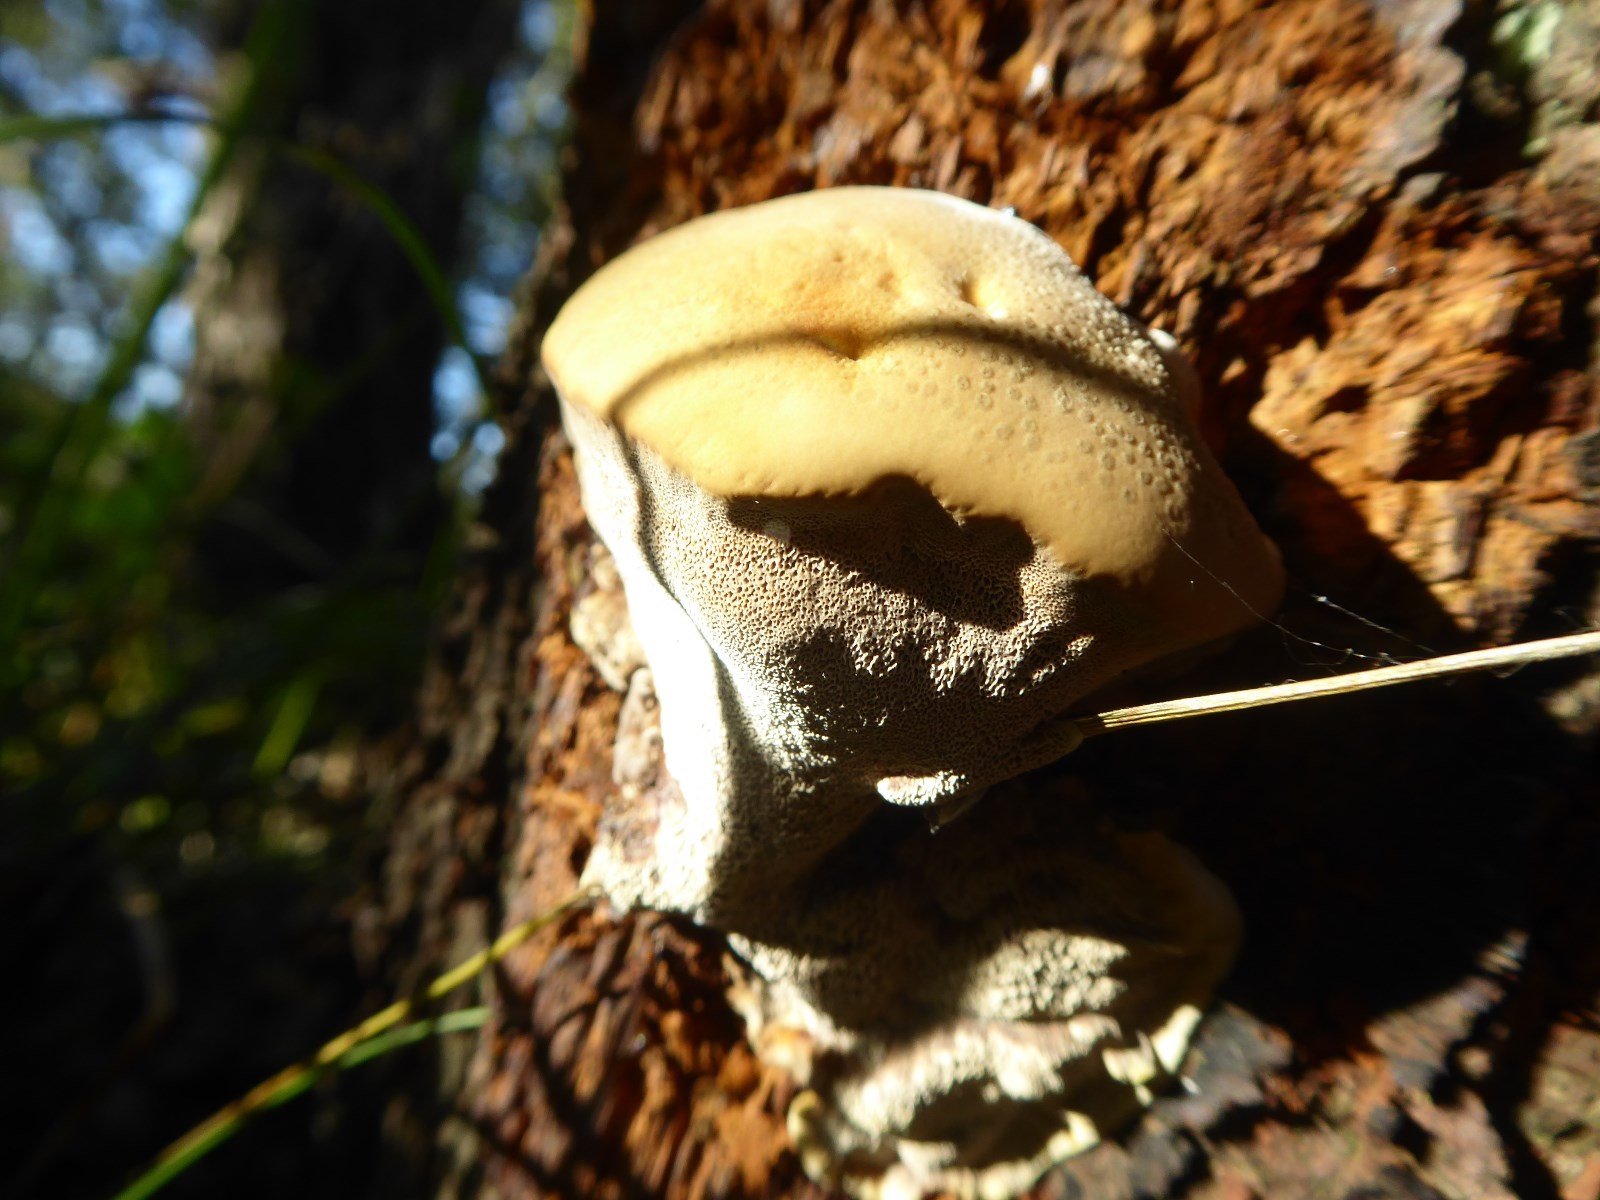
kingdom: Fungi
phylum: Basidiomycota
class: Agaricomycetes
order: Hymenochaetales
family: Hymenochaetaceae
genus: Xanthoporia
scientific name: Xanthoporia radiata
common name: elle-spejlporesvamp
